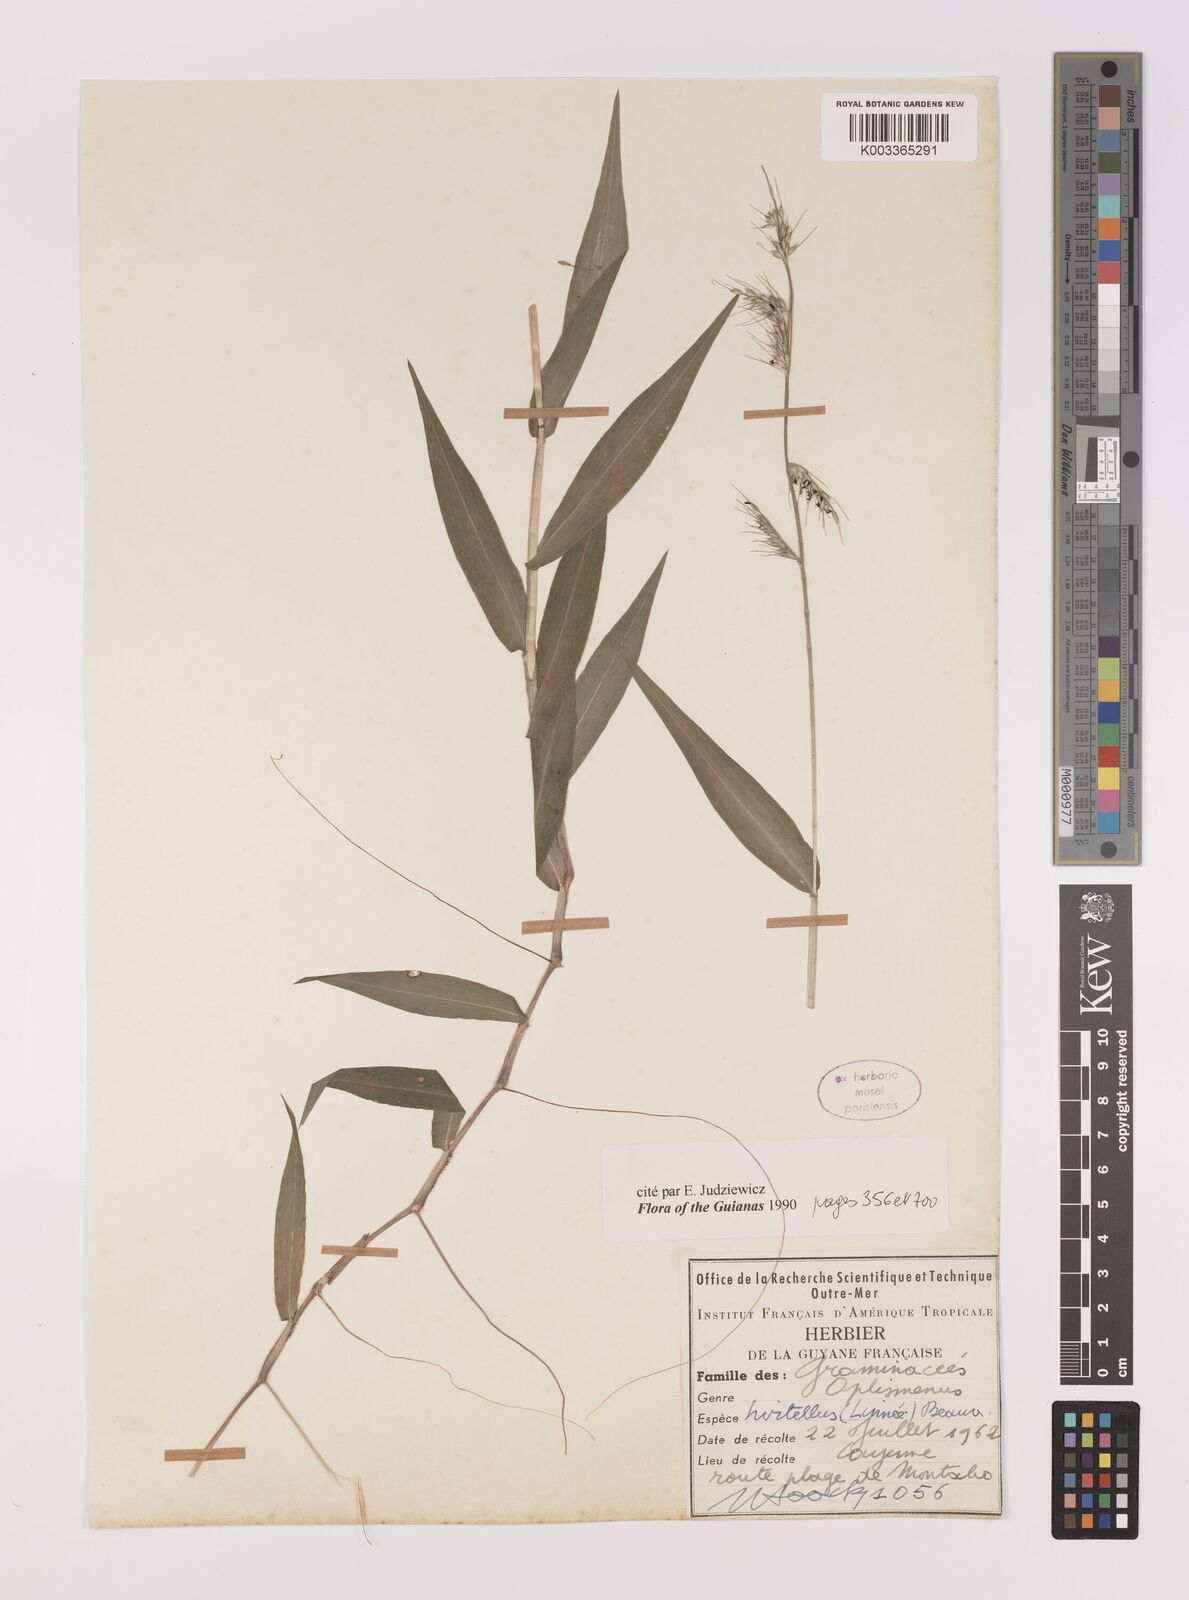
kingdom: Plantae
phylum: Tracheophyta
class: Liliopsida
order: Poales
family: Poaceae
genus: Oplismenus
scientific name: Oplismenus hirtellus
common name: Basketgrass
